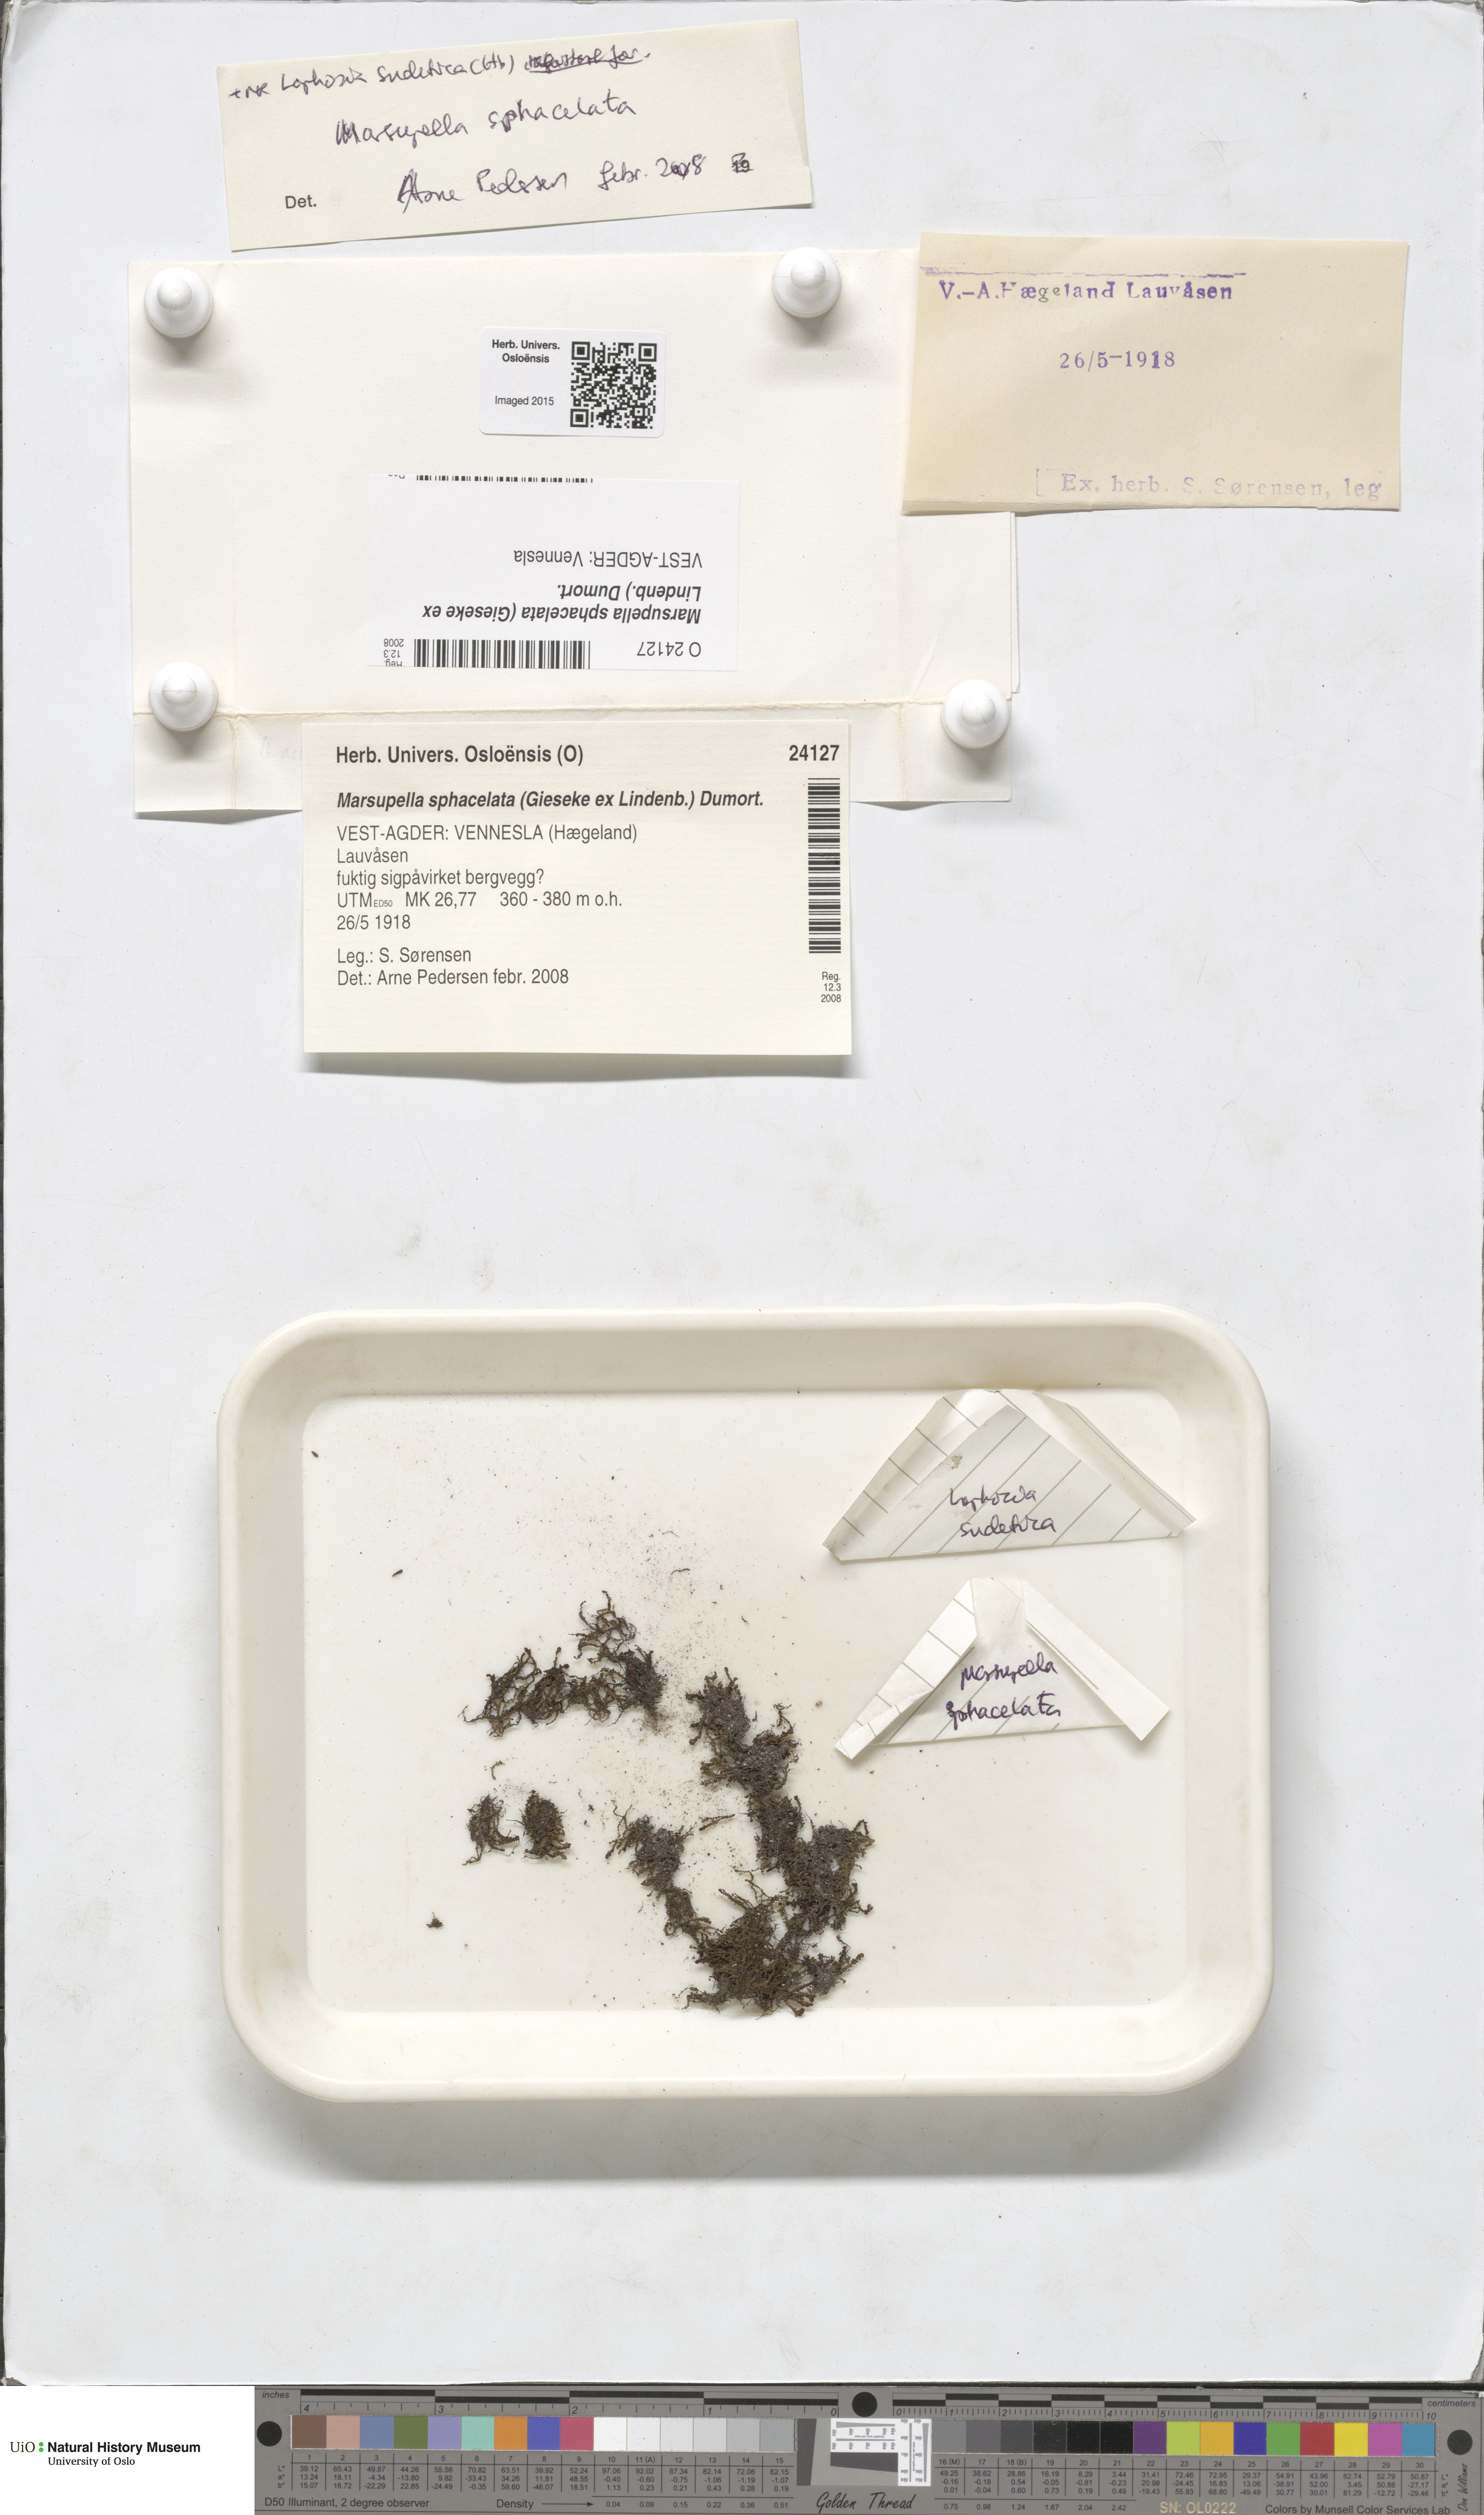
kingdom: Plantae
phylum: Marchantiophyta
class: Jungermanniopsida
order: Jungermanniales
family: Gymnomitriaceae
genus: Marsupella
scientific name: Marsupella sphacelata
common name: Speckled rustwort
